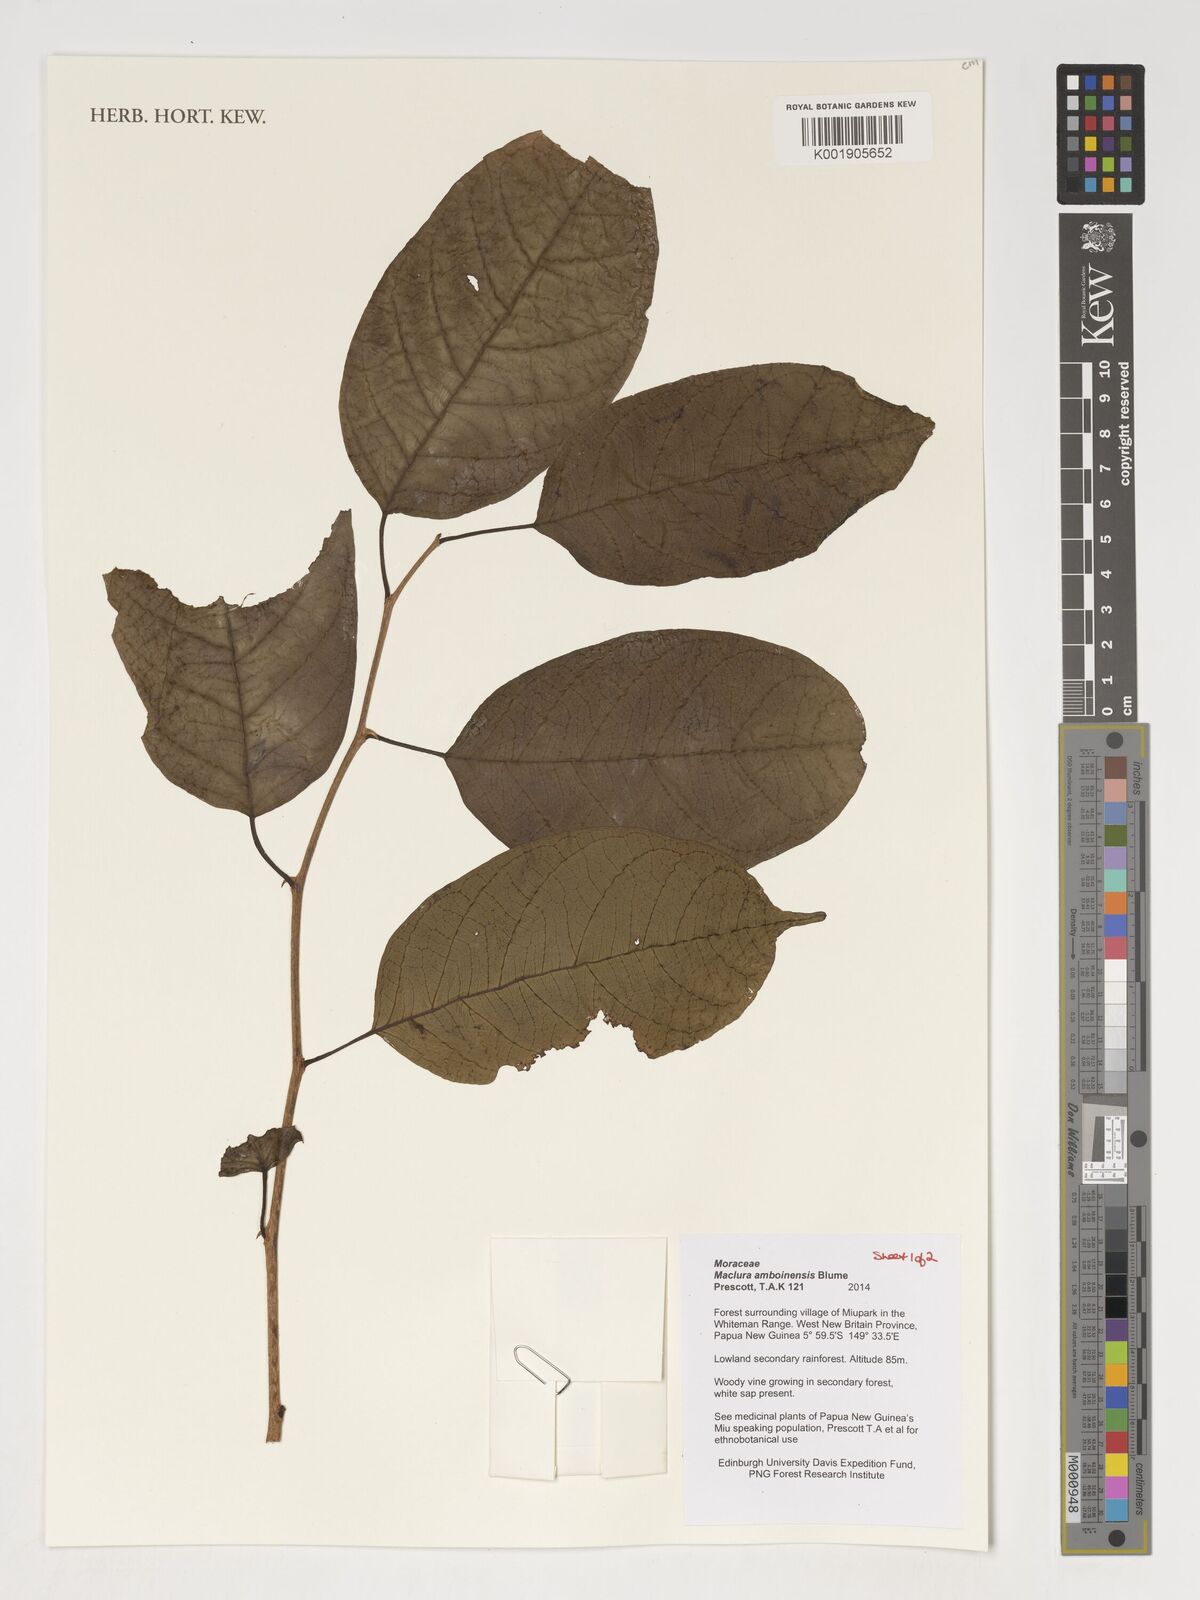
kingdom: Plantae
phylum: Tracheophyta
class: Magnoliopsida
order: Rosales
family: Moraceae
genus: Maclura
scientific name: Maclura cochinchinensis
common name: Cockspurthorn
